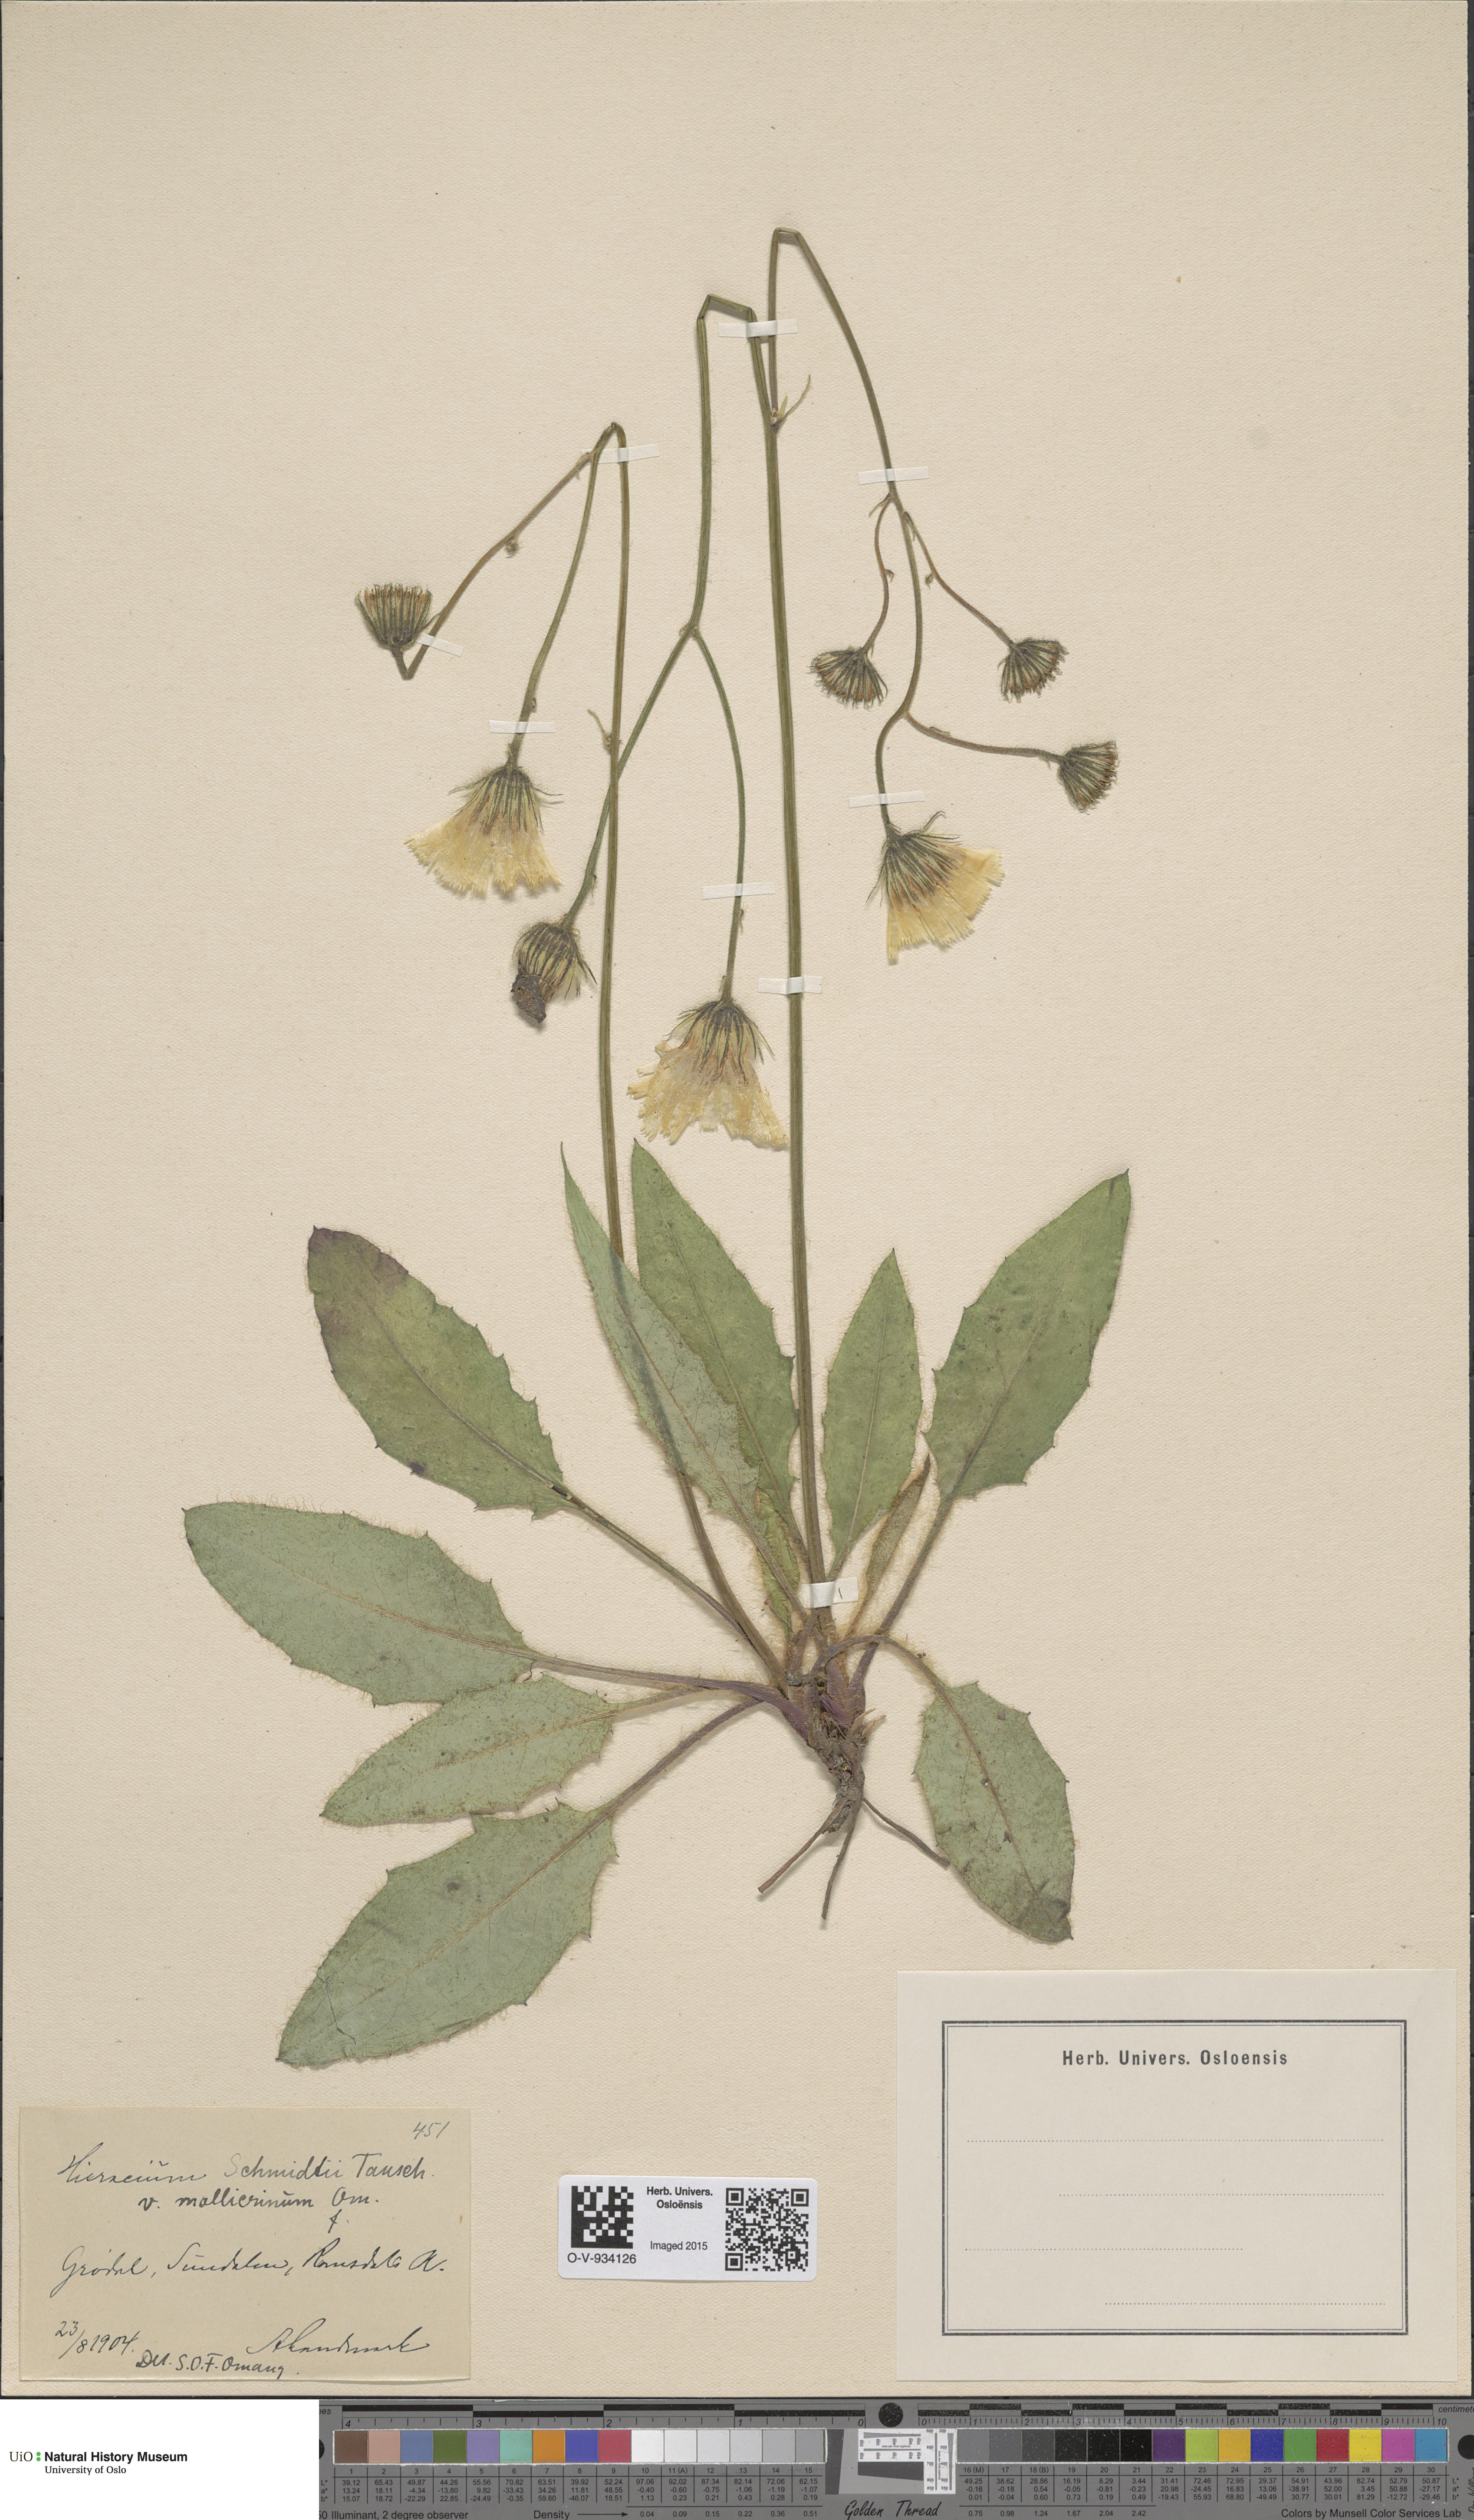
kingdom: Plantae
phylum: Tracheophyta
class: Magnoliopsida
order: Asterales
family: Asteraceae
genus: Hieracium
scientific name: Hieracium schmidtii
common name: Schmidt's hawkweed
